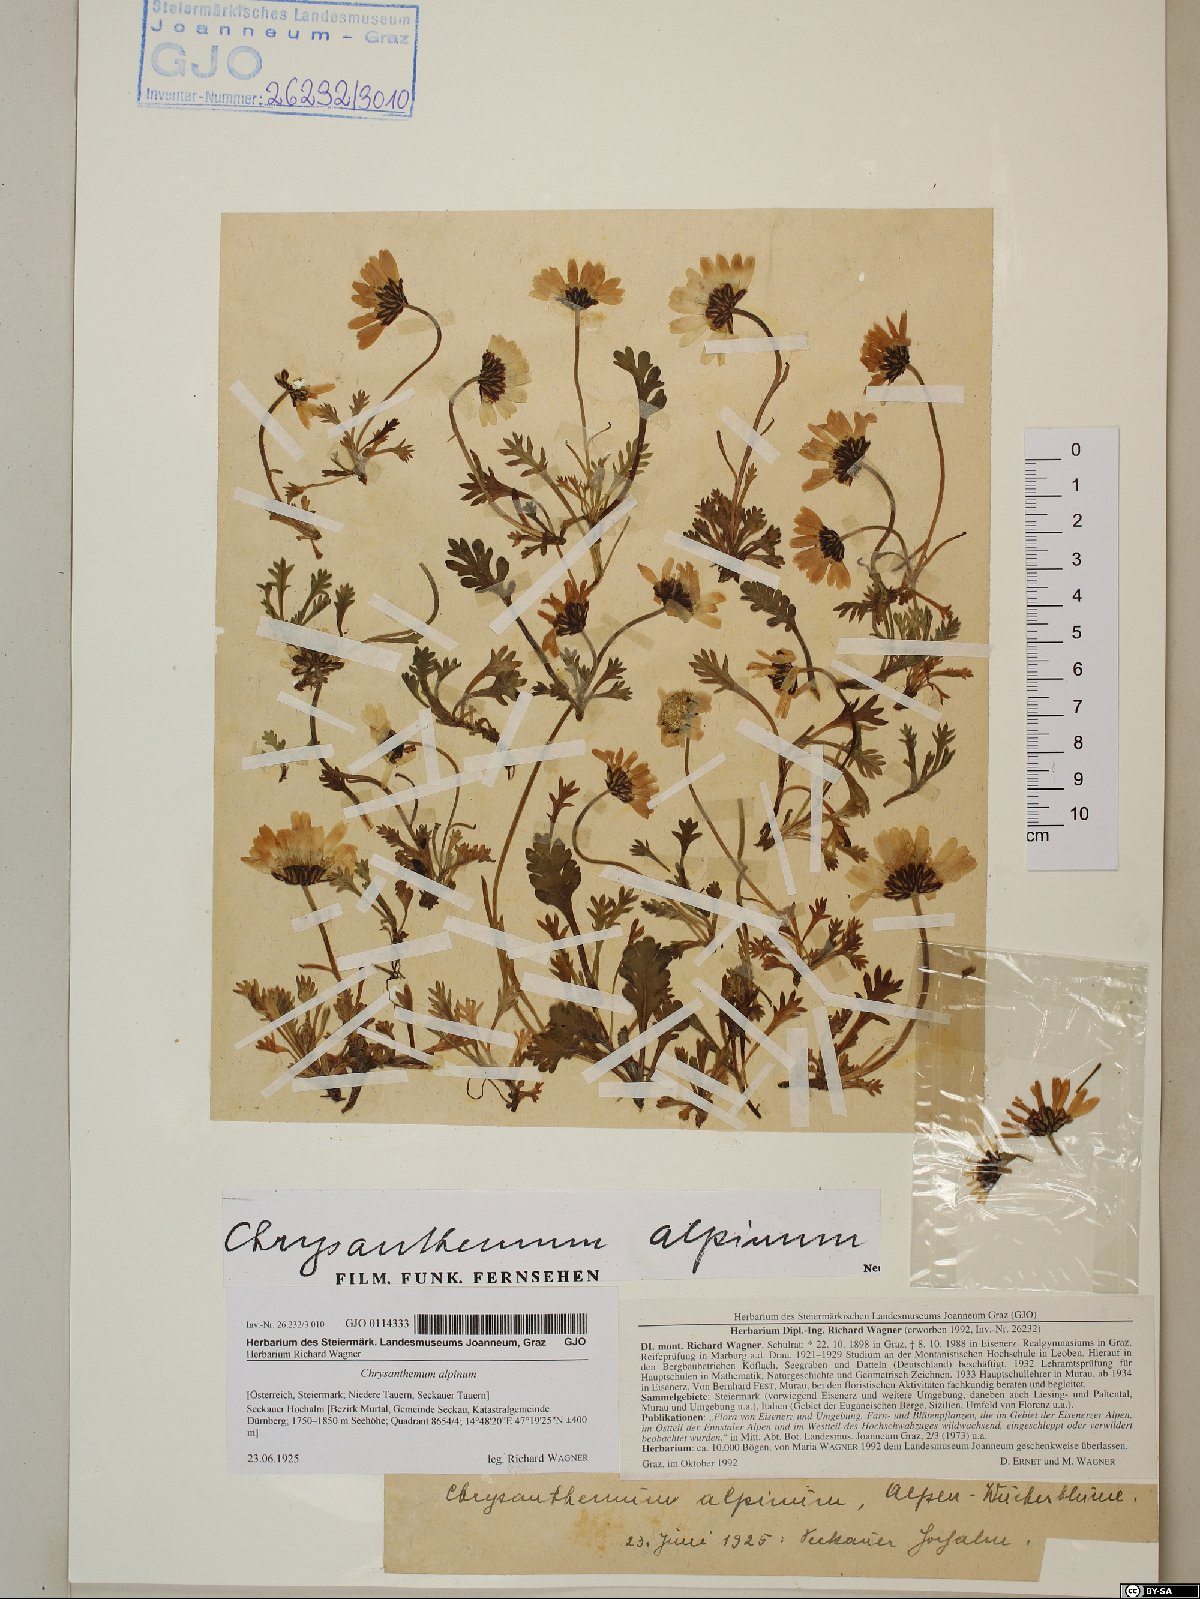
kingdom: Plantae
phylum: Tracheophyta
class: Magnoliopsida
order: Asterales
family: Asteraceae
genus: Leucanthemopsis
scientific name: Leucanthemopsis alpina
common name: Alpine moon daisy
